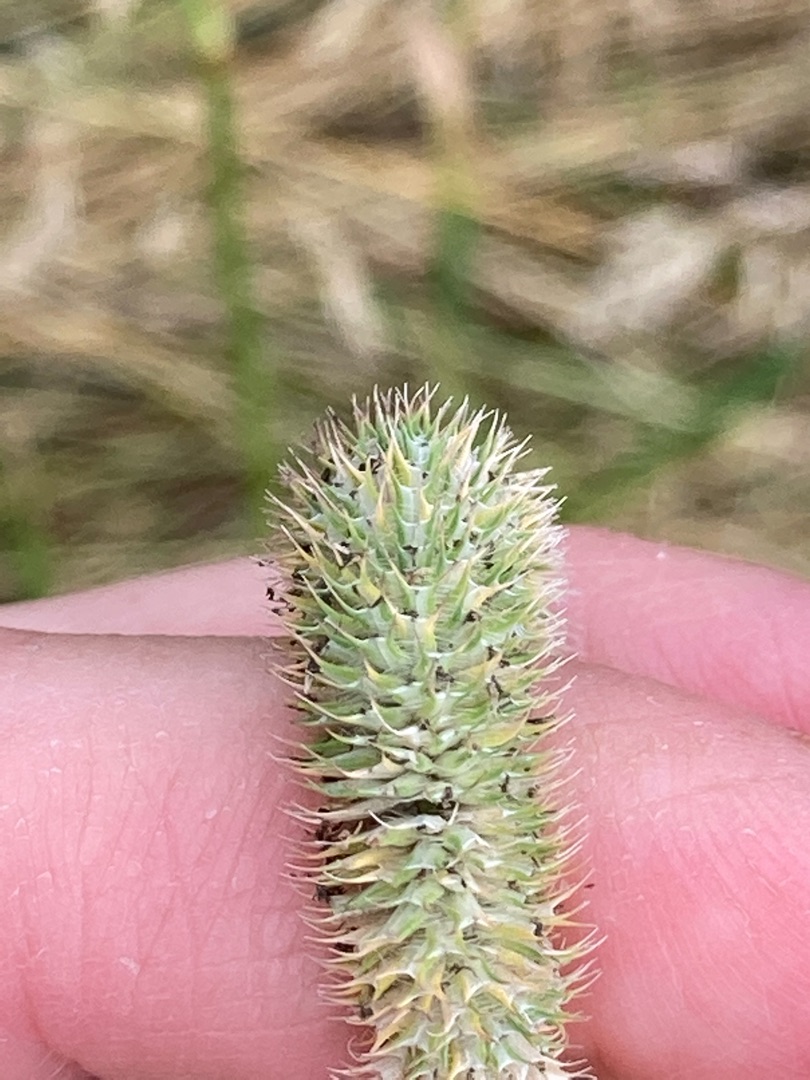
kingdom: Plantae
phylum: Tracheophyta
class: Liliopsida
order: Poales
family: Poaceae
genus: Phleum
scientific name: Phleum pratense
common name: Eng-rottehale
